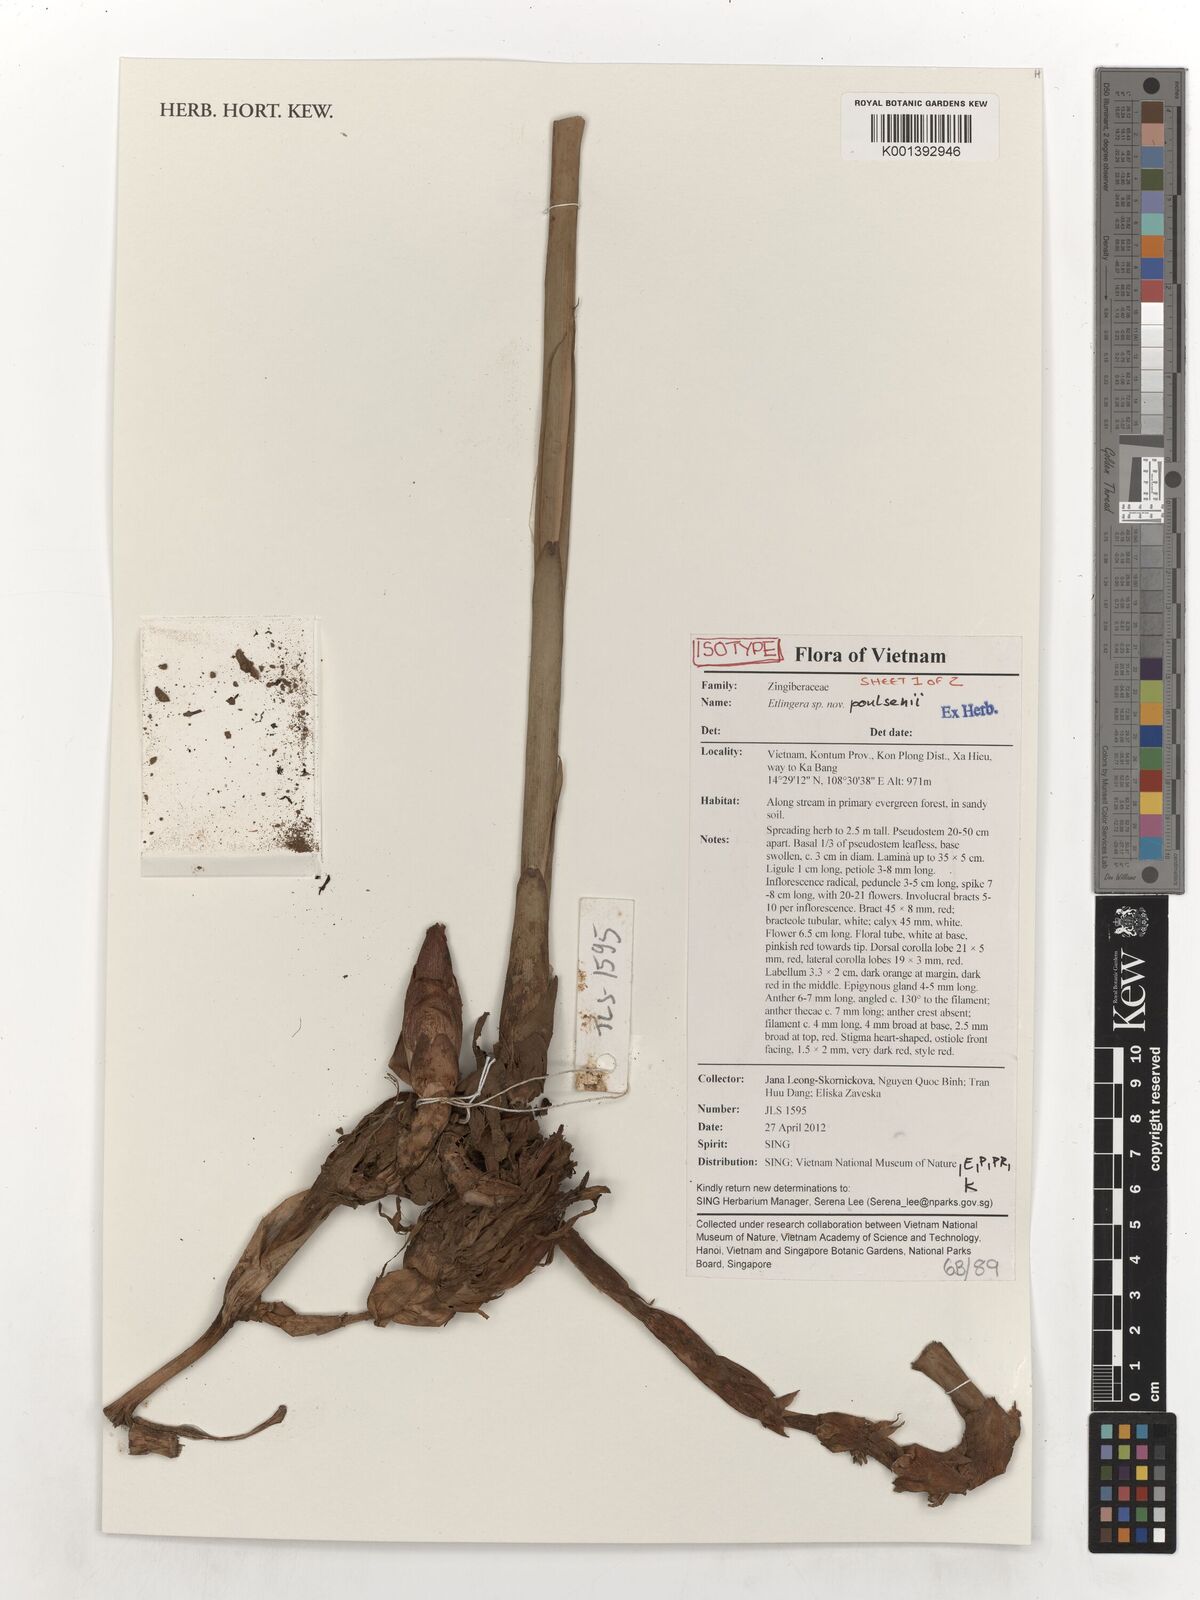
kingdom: Plantae
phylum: Tracheophyta
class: Liliopsida
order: Zingiberales
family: Zingiberaceae
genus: Etlingera
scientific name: Etlingera poulsenii
